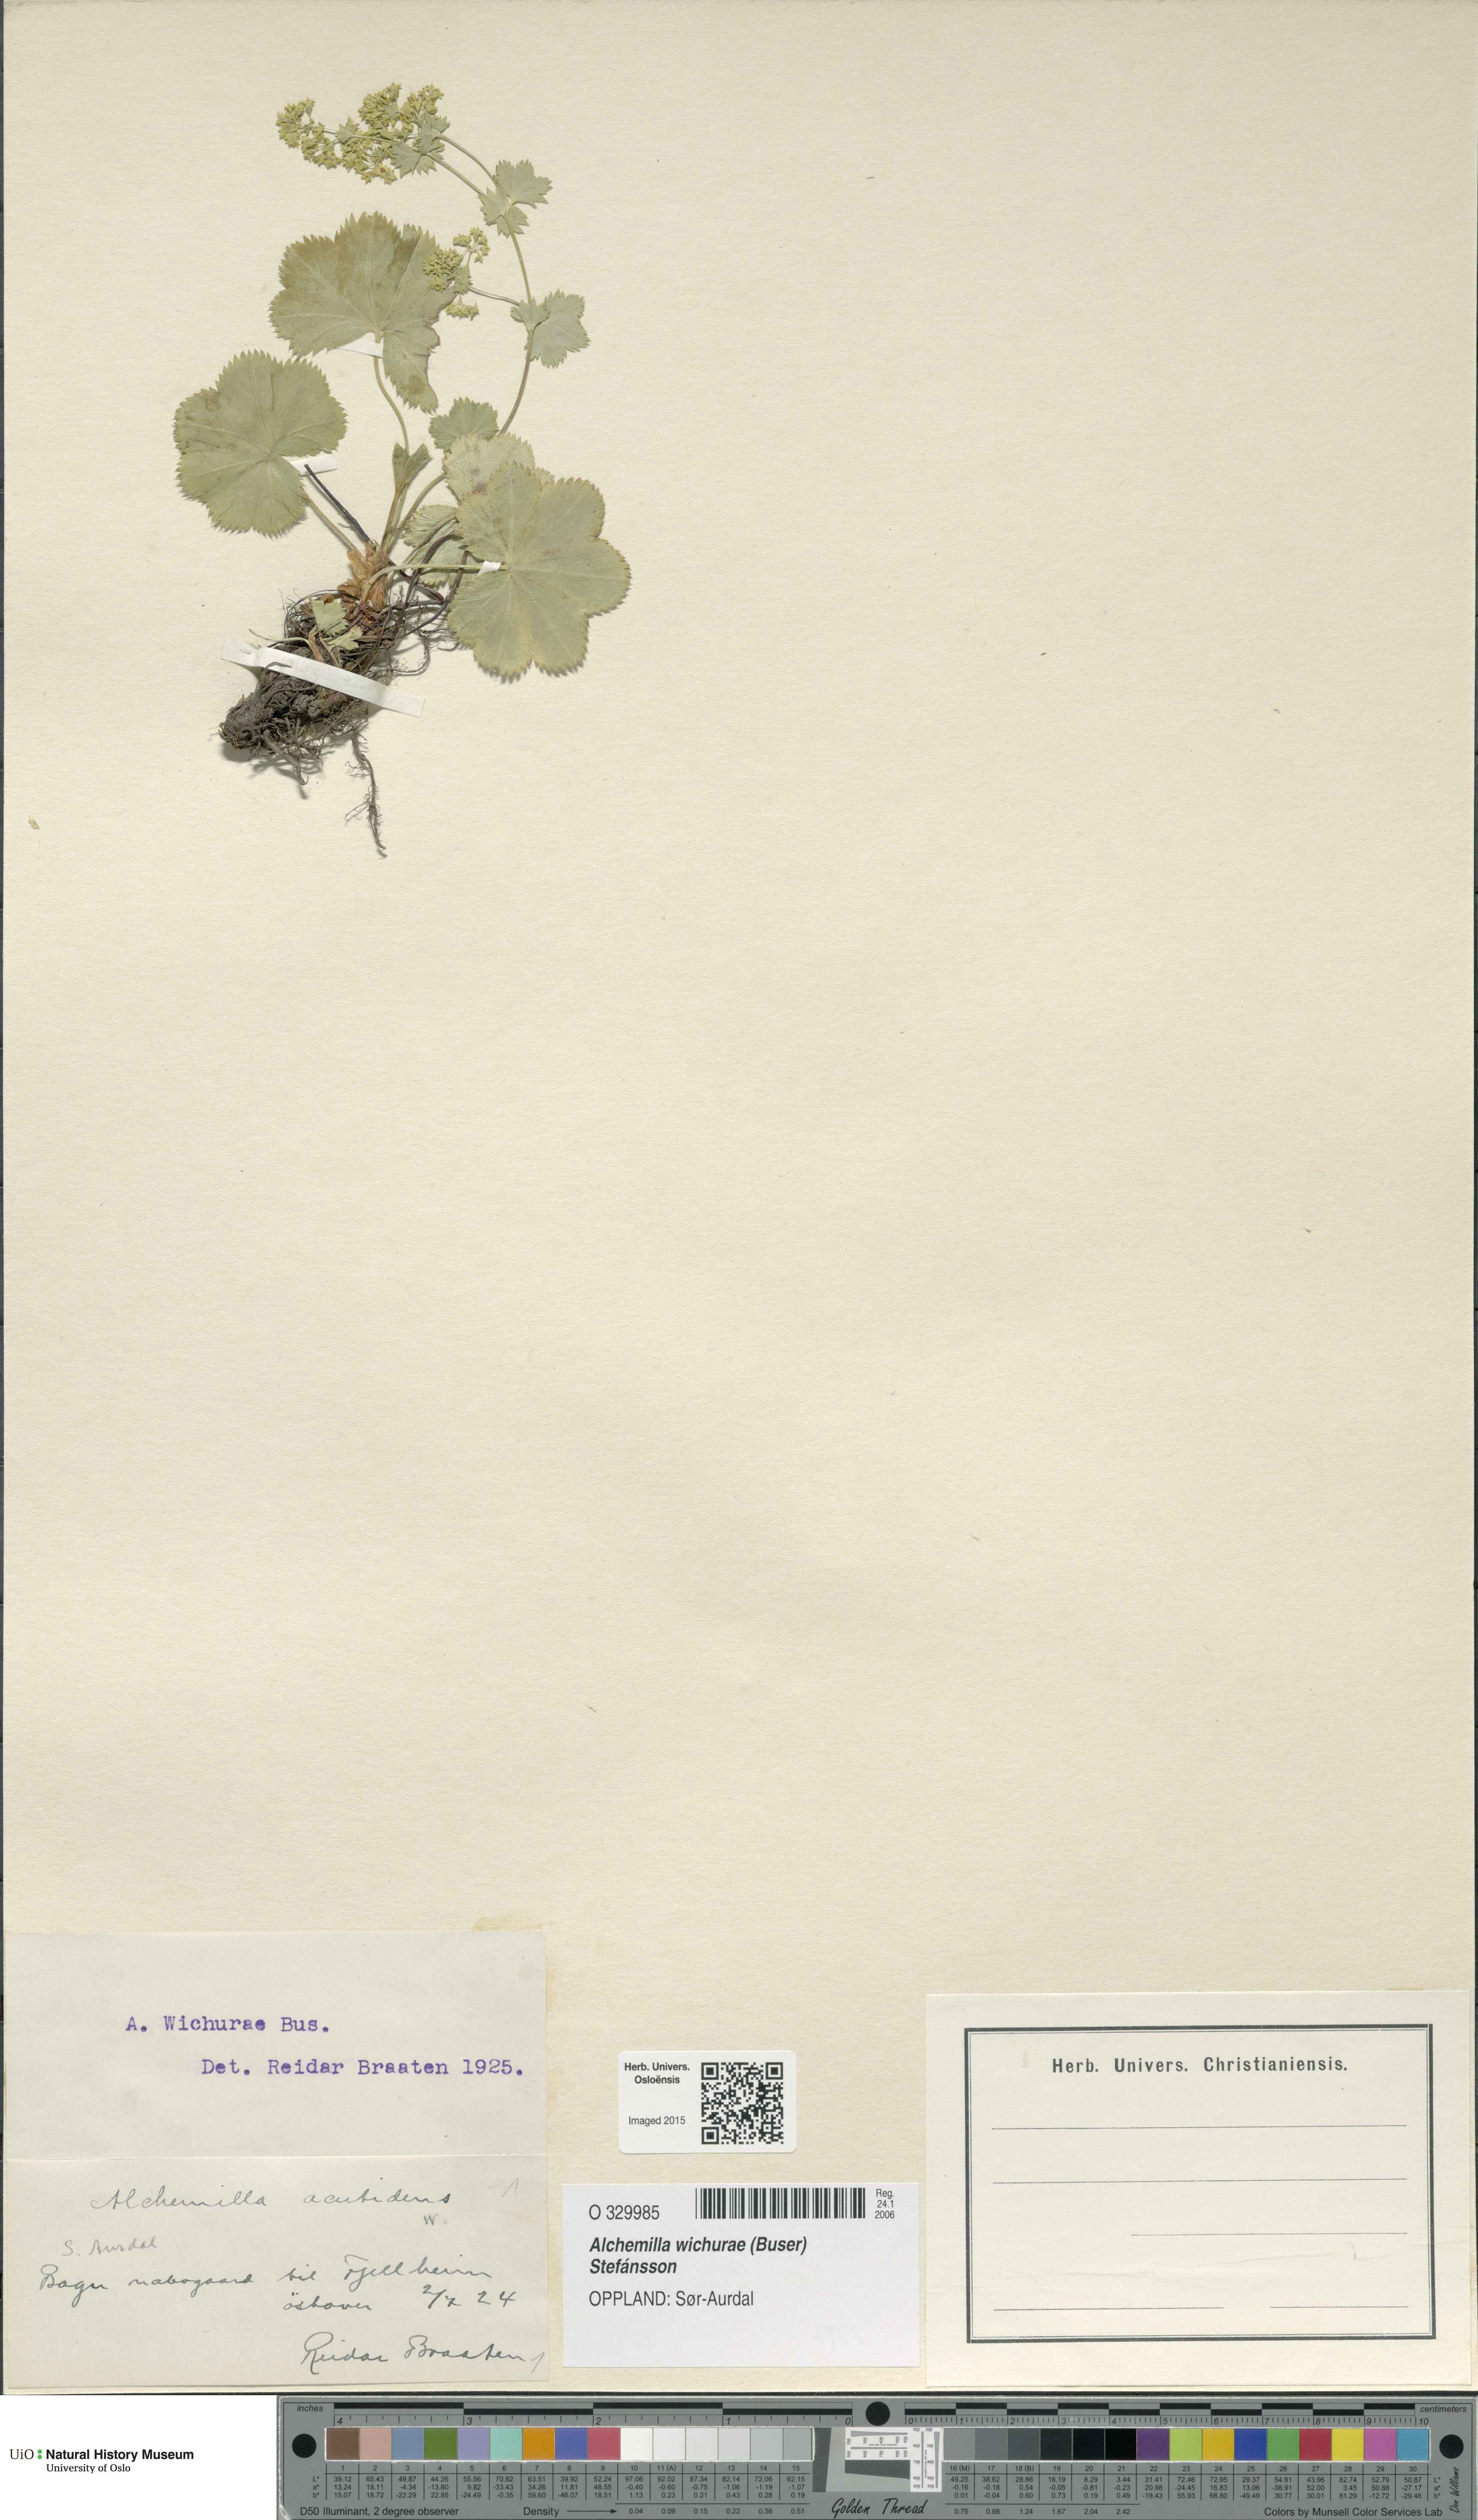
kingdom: Plantae
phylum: Tracheophyta
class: Magnoliopsida
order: Rosales
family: Rosaceae
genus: Alchemilla
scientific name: Alchemilla wichurae
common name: Rock lady's mantle
